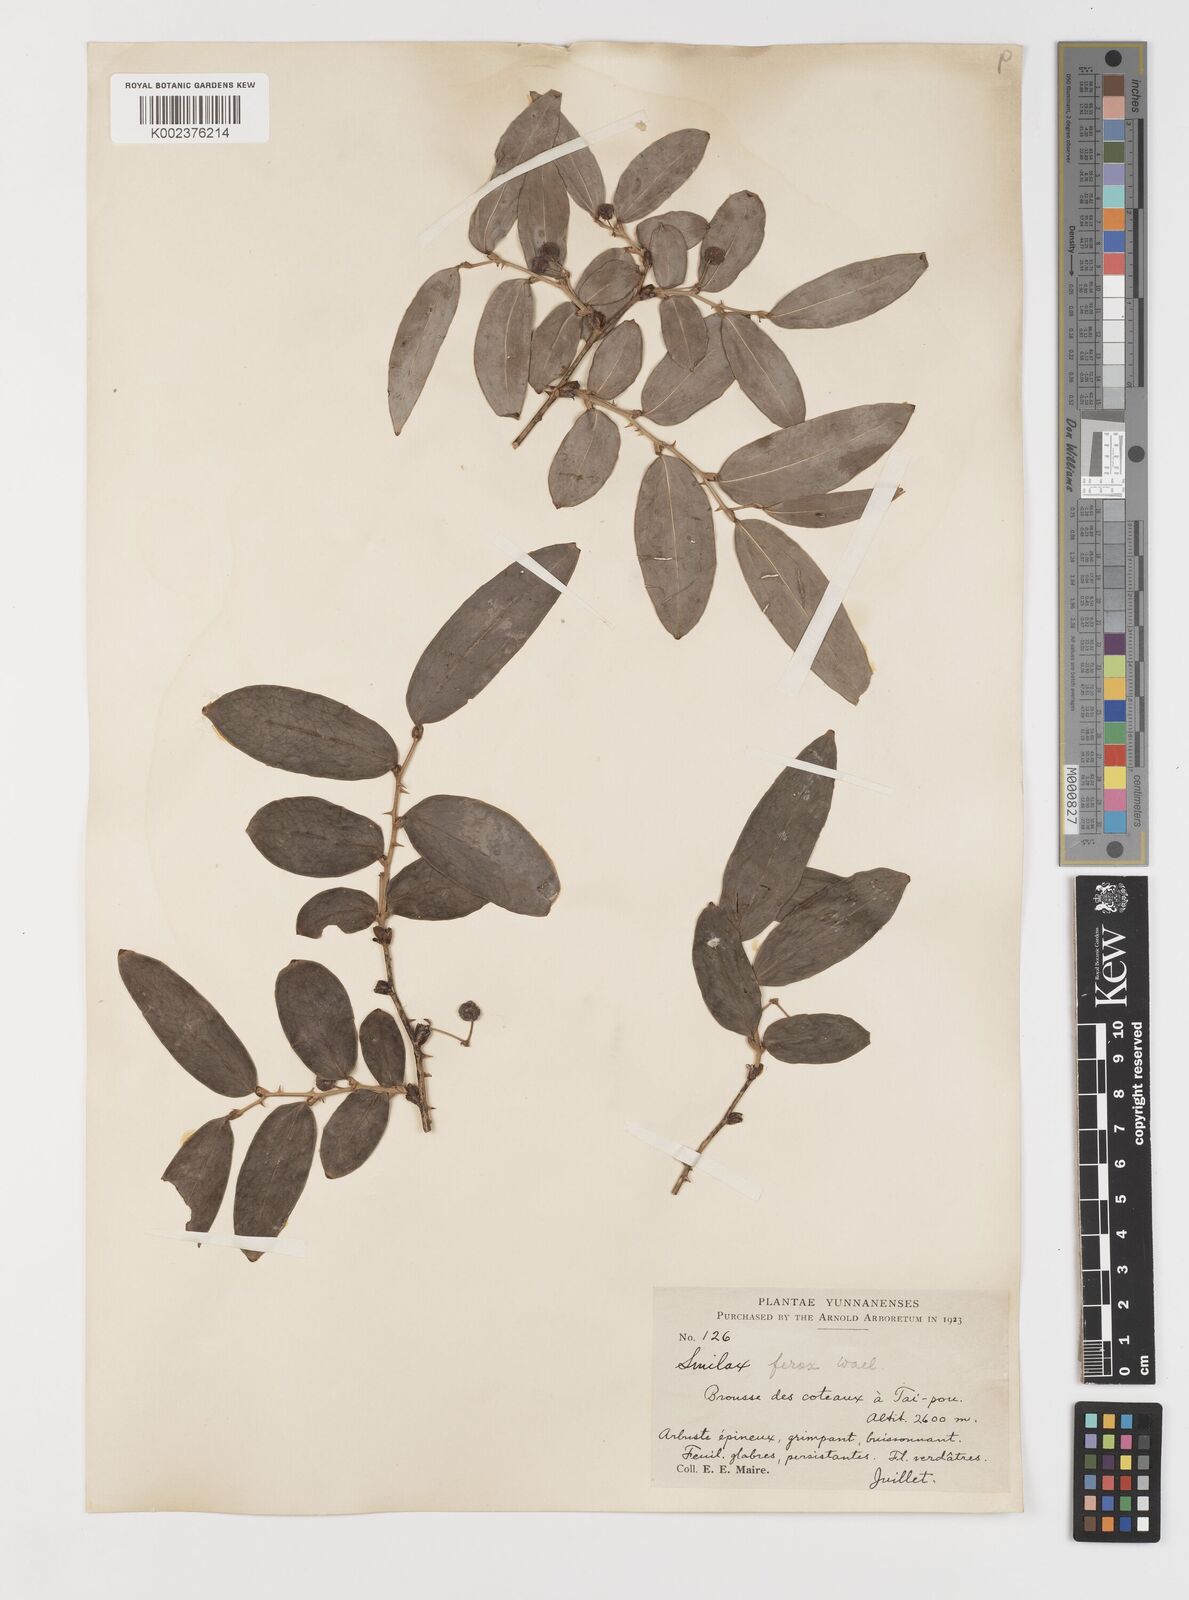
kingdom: Plantae
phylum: Tracheophyta
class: Liliopsida
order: Liliales
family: Smilacaceae
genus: Smilax
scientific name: Smilax ferox
